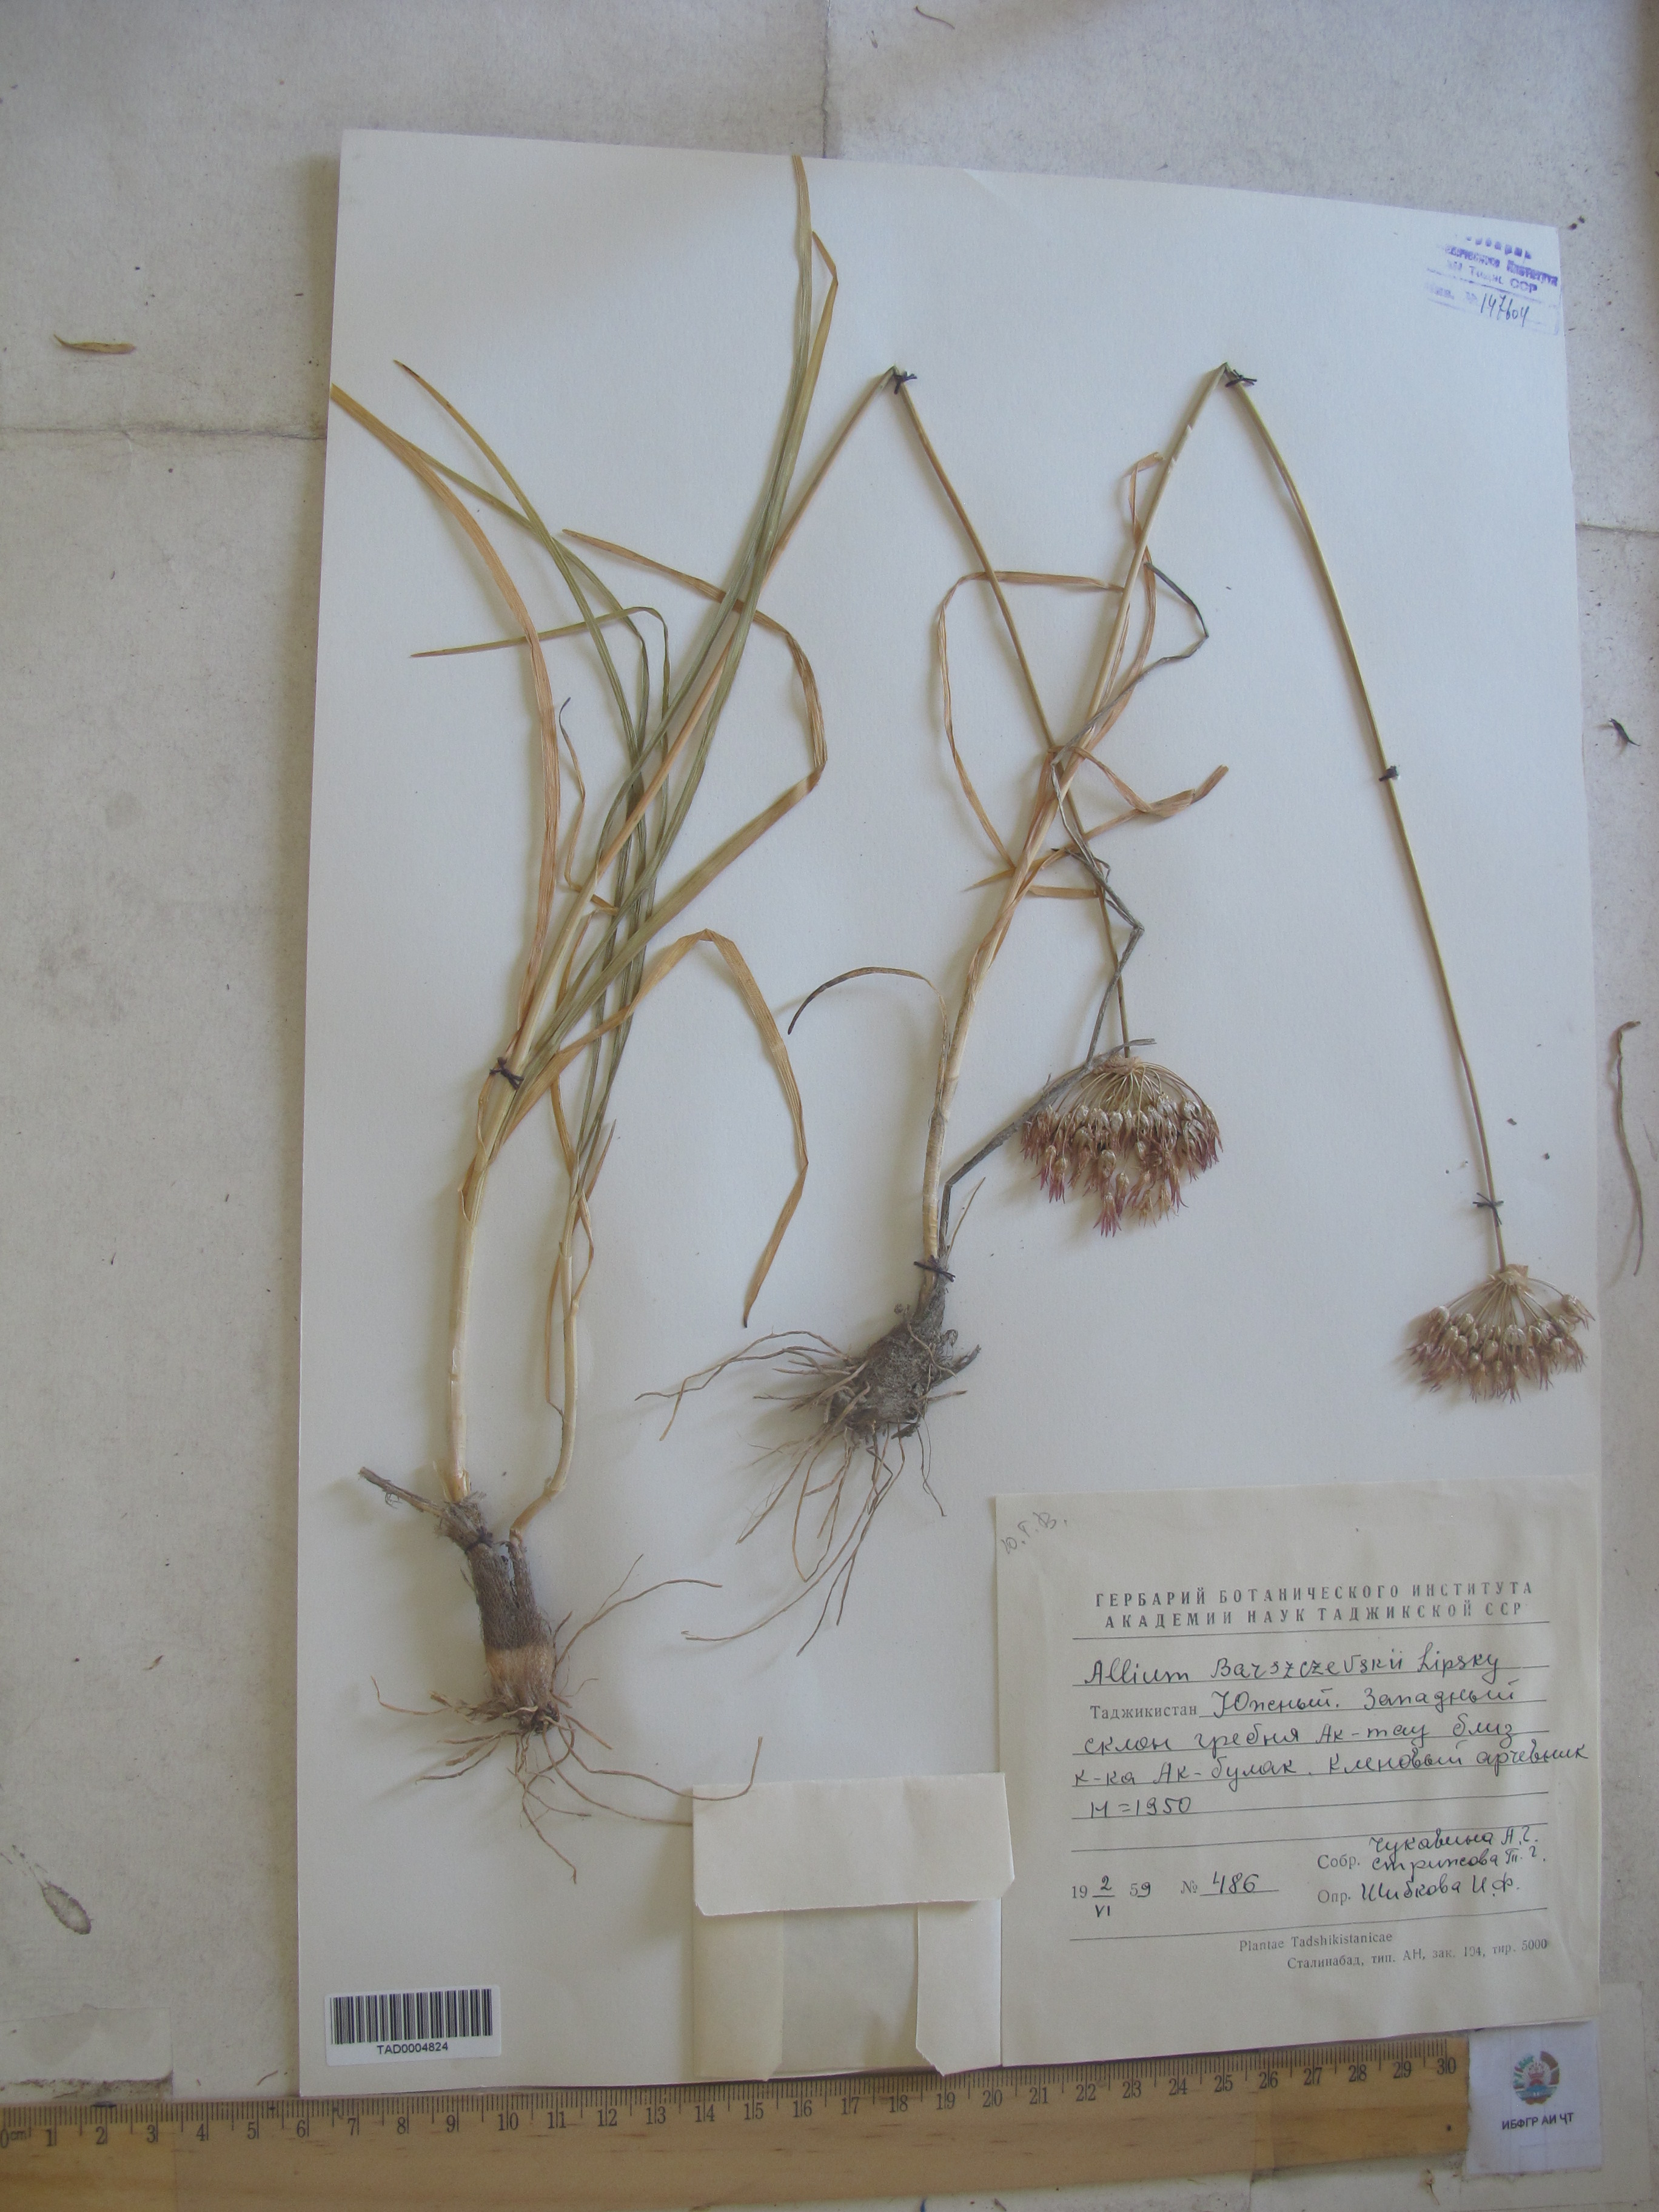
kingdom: Plantae
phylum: Tracheophyta
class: Liliopsida
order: Asparagales
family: Amaryllidaceae
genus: Allium
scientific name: Allium barszczewskii
